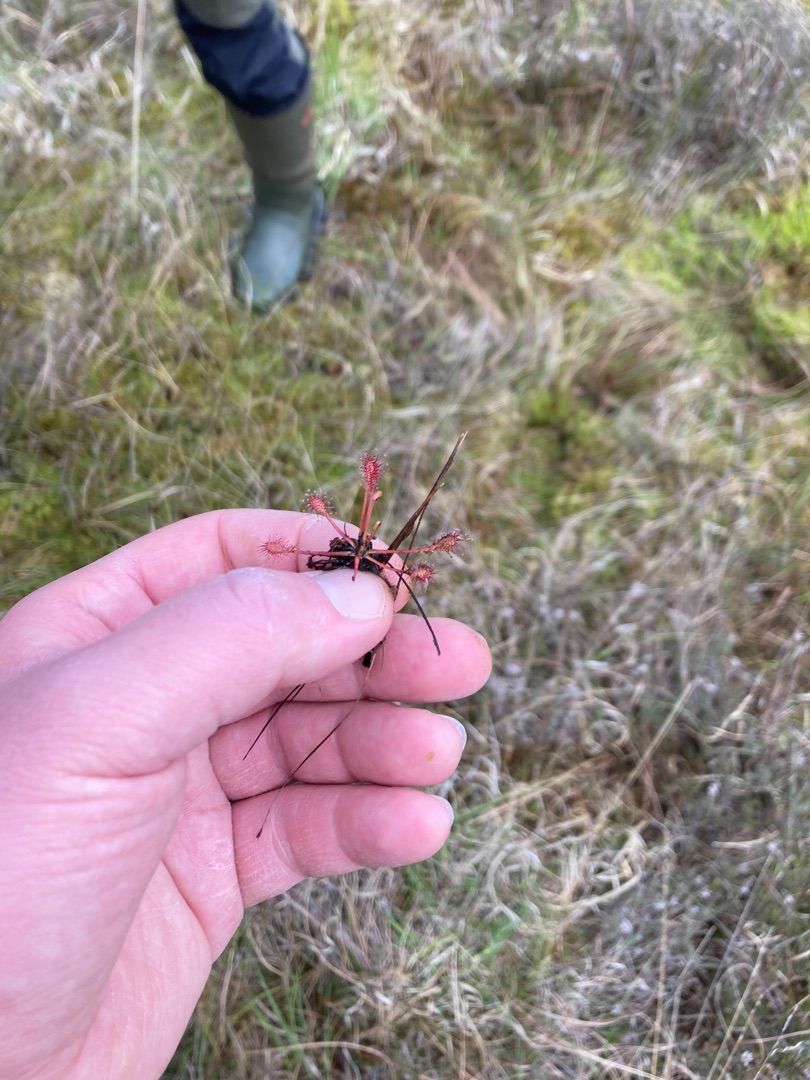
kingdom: Plantae
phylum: Tracheophyta
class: Magnoliopsida
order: Caryophyllales
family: Droseraceae
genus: Drosera
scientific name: Drosera intermedia
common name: Liden soldug
